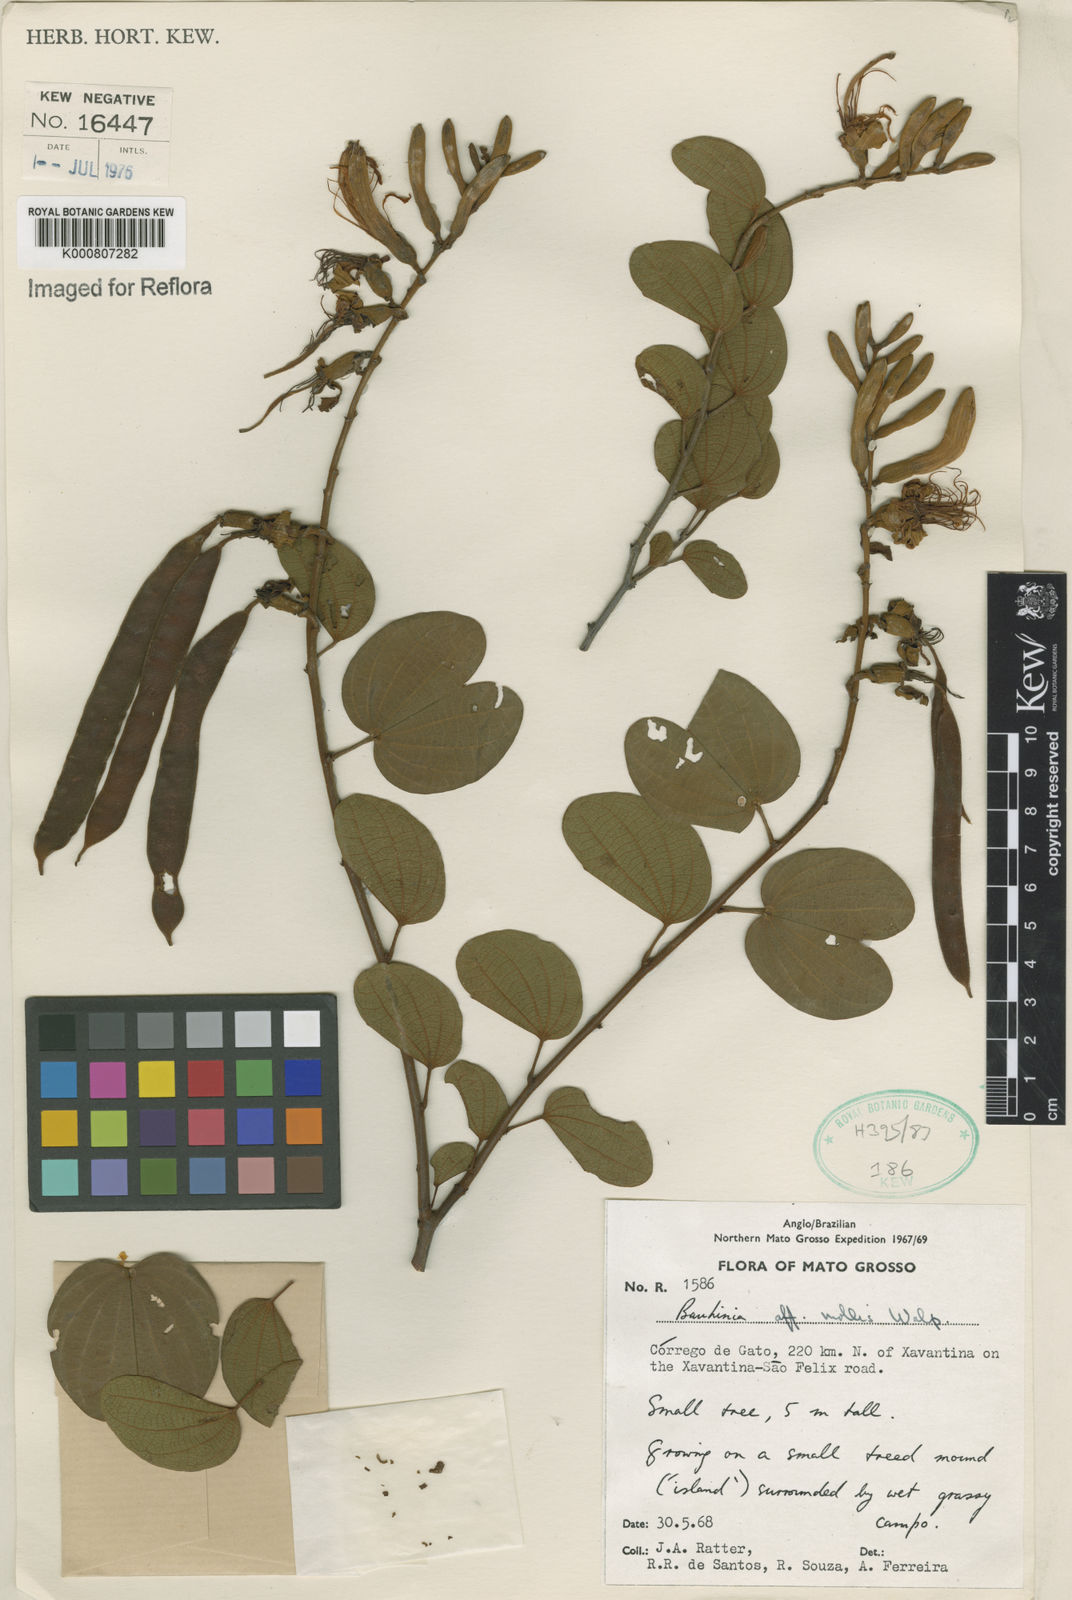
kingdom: Plantae
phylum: Tracheophyta
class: Magnoliopsida
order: Fabales
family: Fabaceae
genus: Bauhinia
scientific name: Bauhinia mollis
